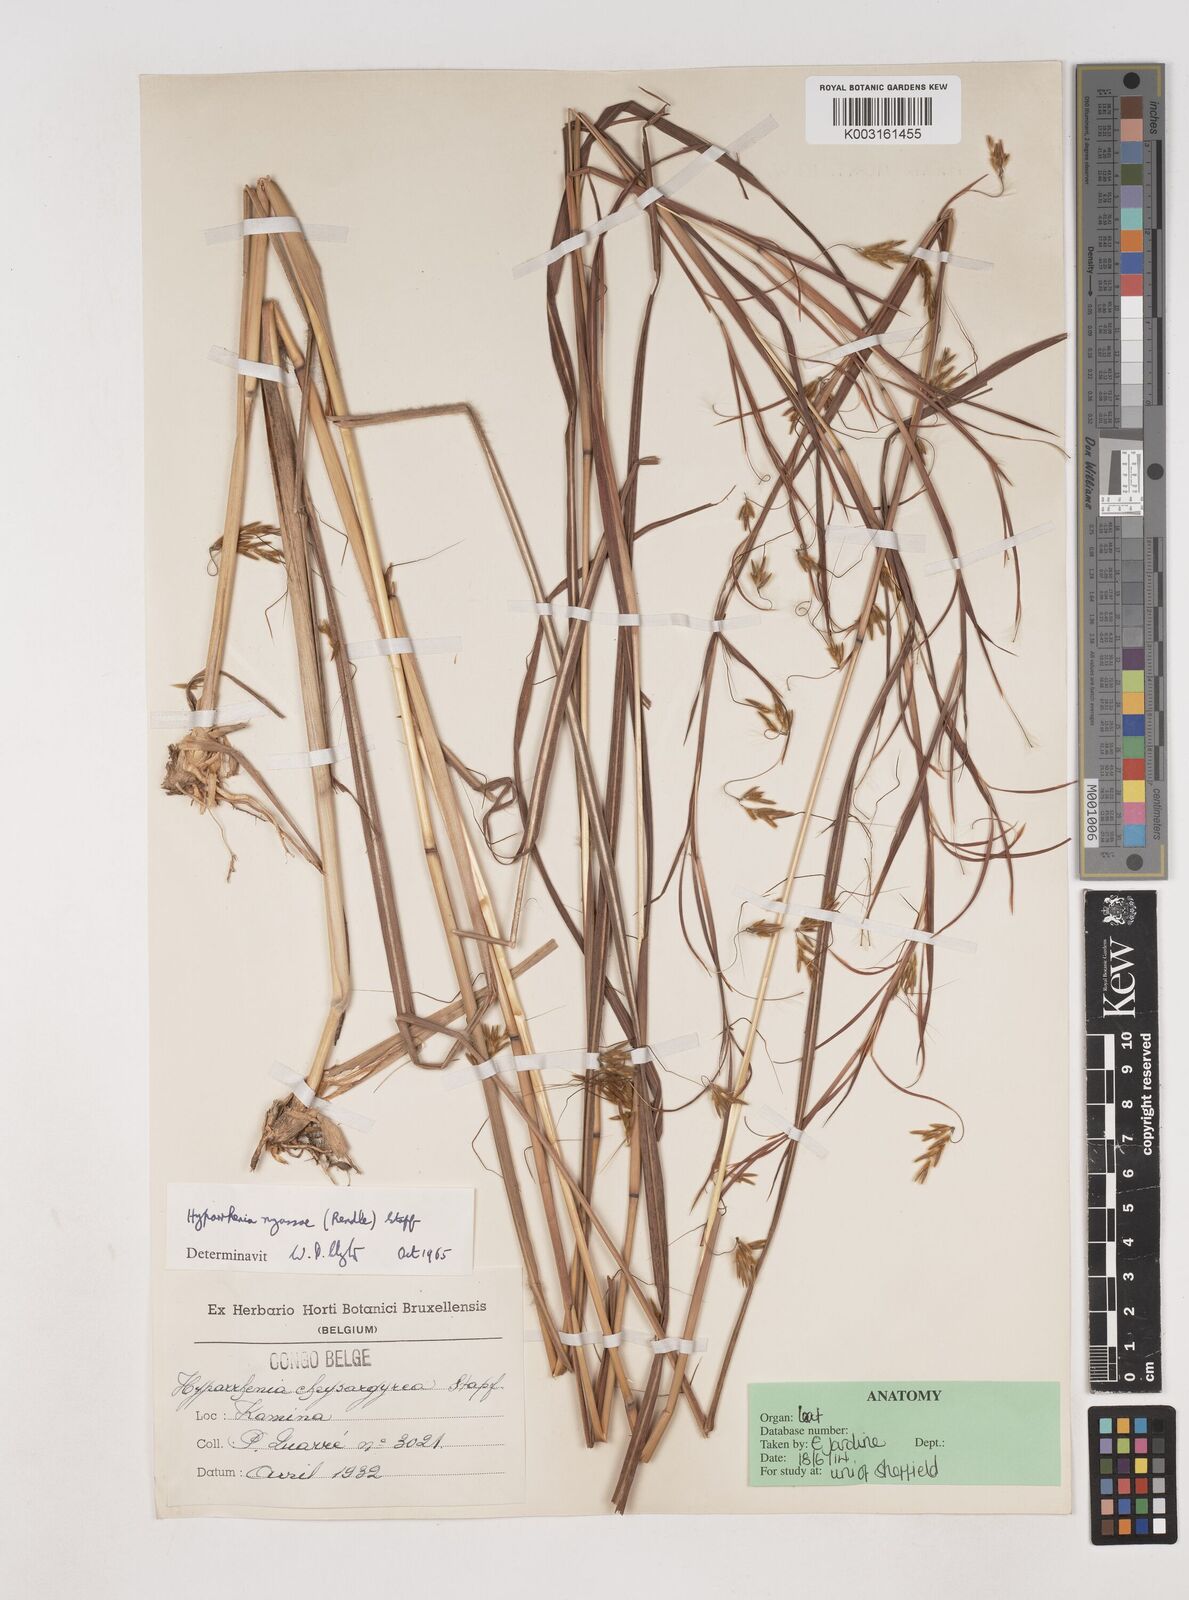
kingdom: Plantae
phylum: Tracheophyta
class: Liliopsida
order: Poales
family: Poaceae
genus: Hyparrhenia
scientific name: Hyparrhenia nyassae
